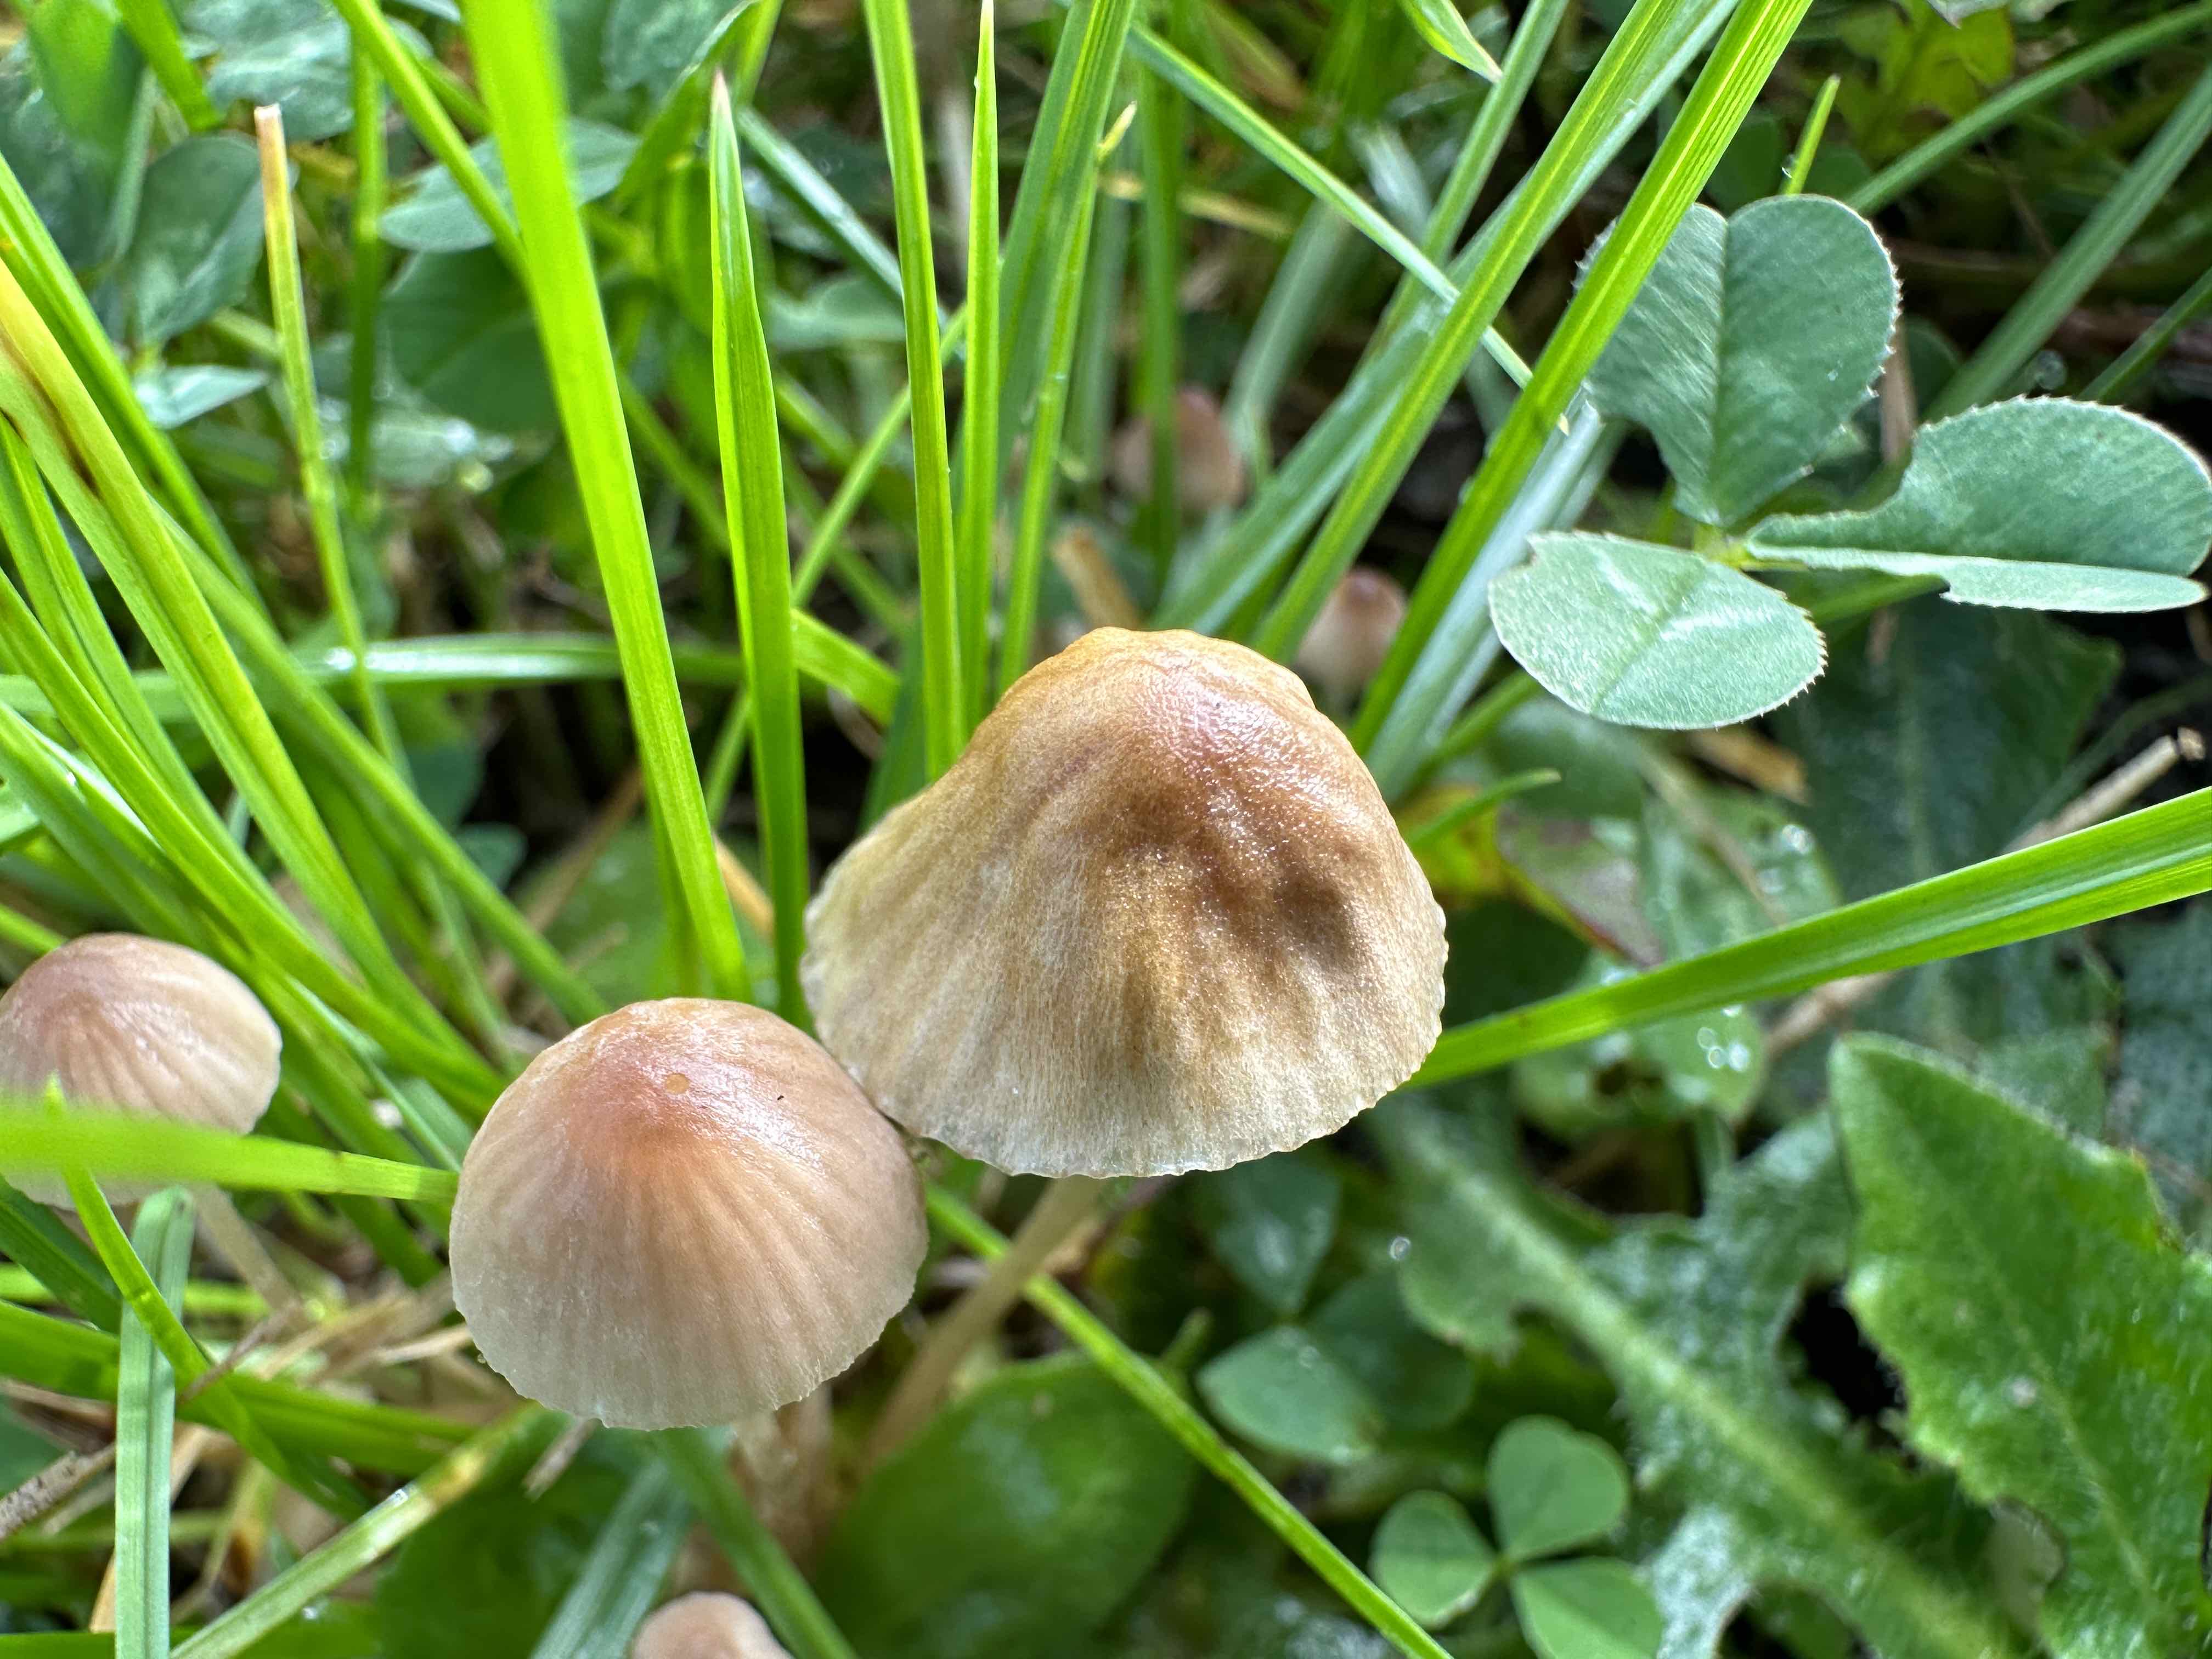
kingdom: Fungi
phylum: Basidiomycota
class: Agaricomycetes
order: Agaricales
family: Mycenaceae
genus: Mycena
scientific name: Mycena olivaceomarginata
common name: brunægget huesvamp
